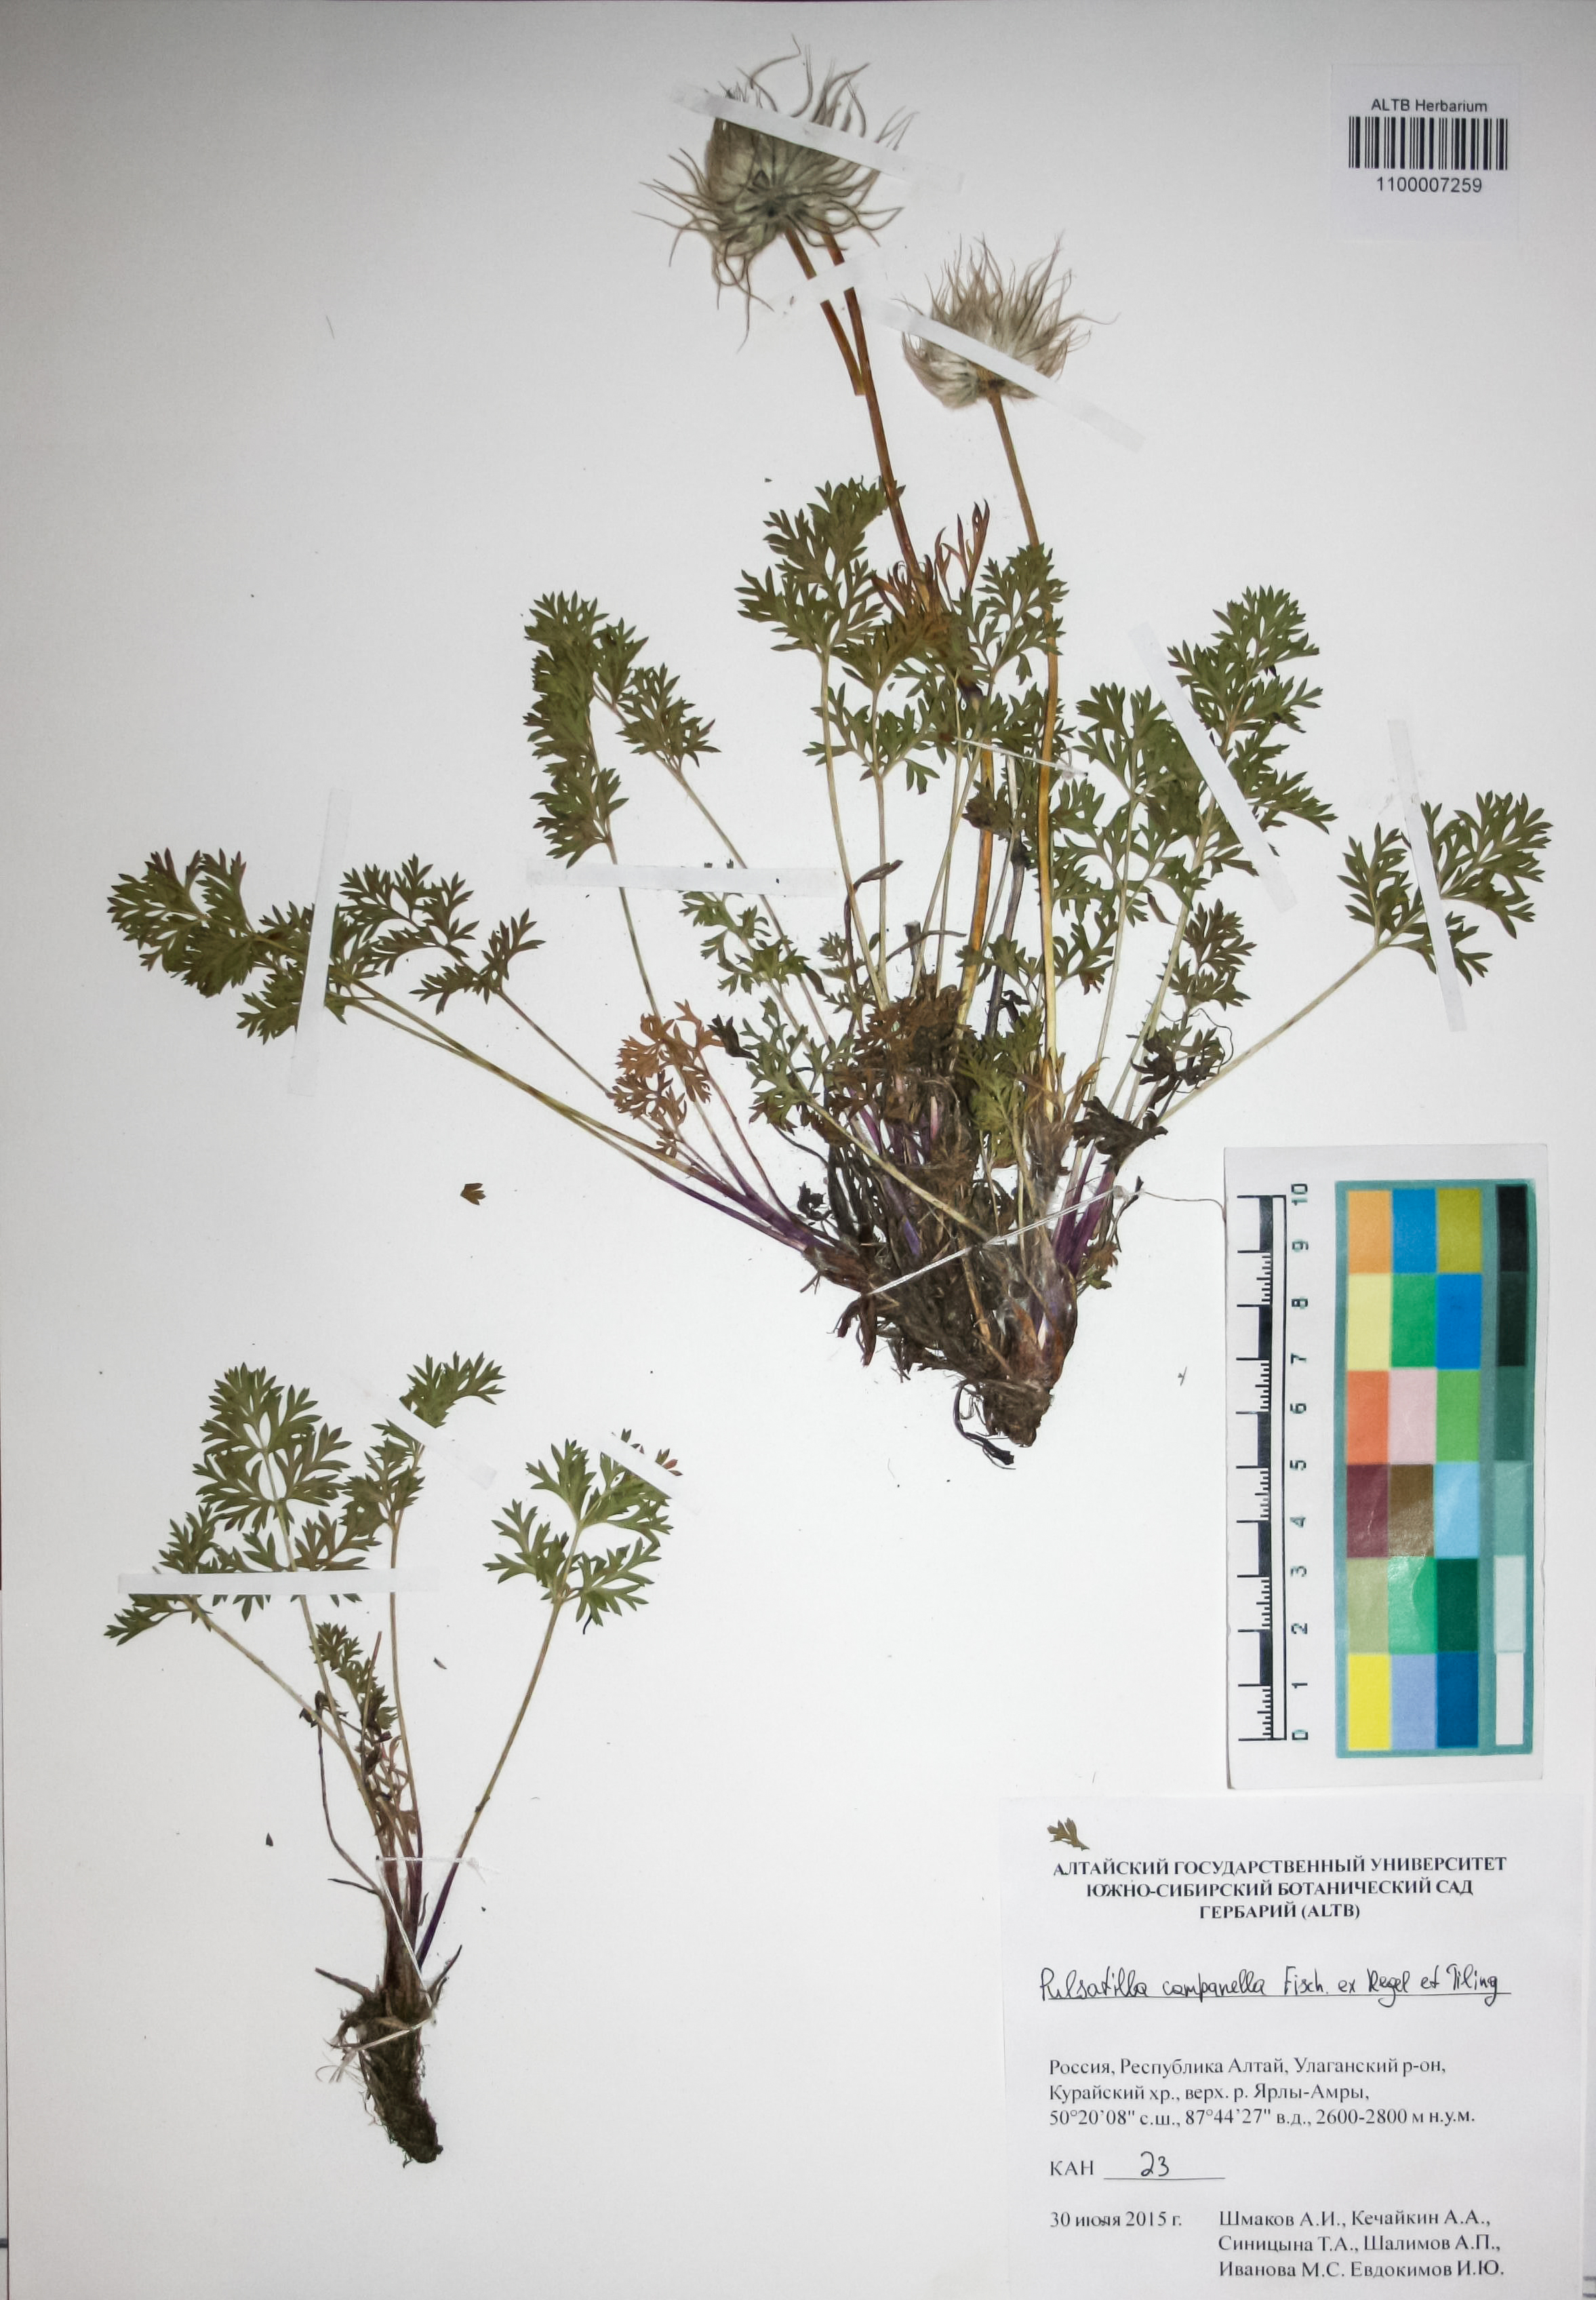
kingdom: Plantae
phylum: Tracheophyta
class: Magnoliopsida
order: Ranunculales
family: Ranunculaceae
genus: Pulsatilla
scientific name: Pulsatilla campanella
